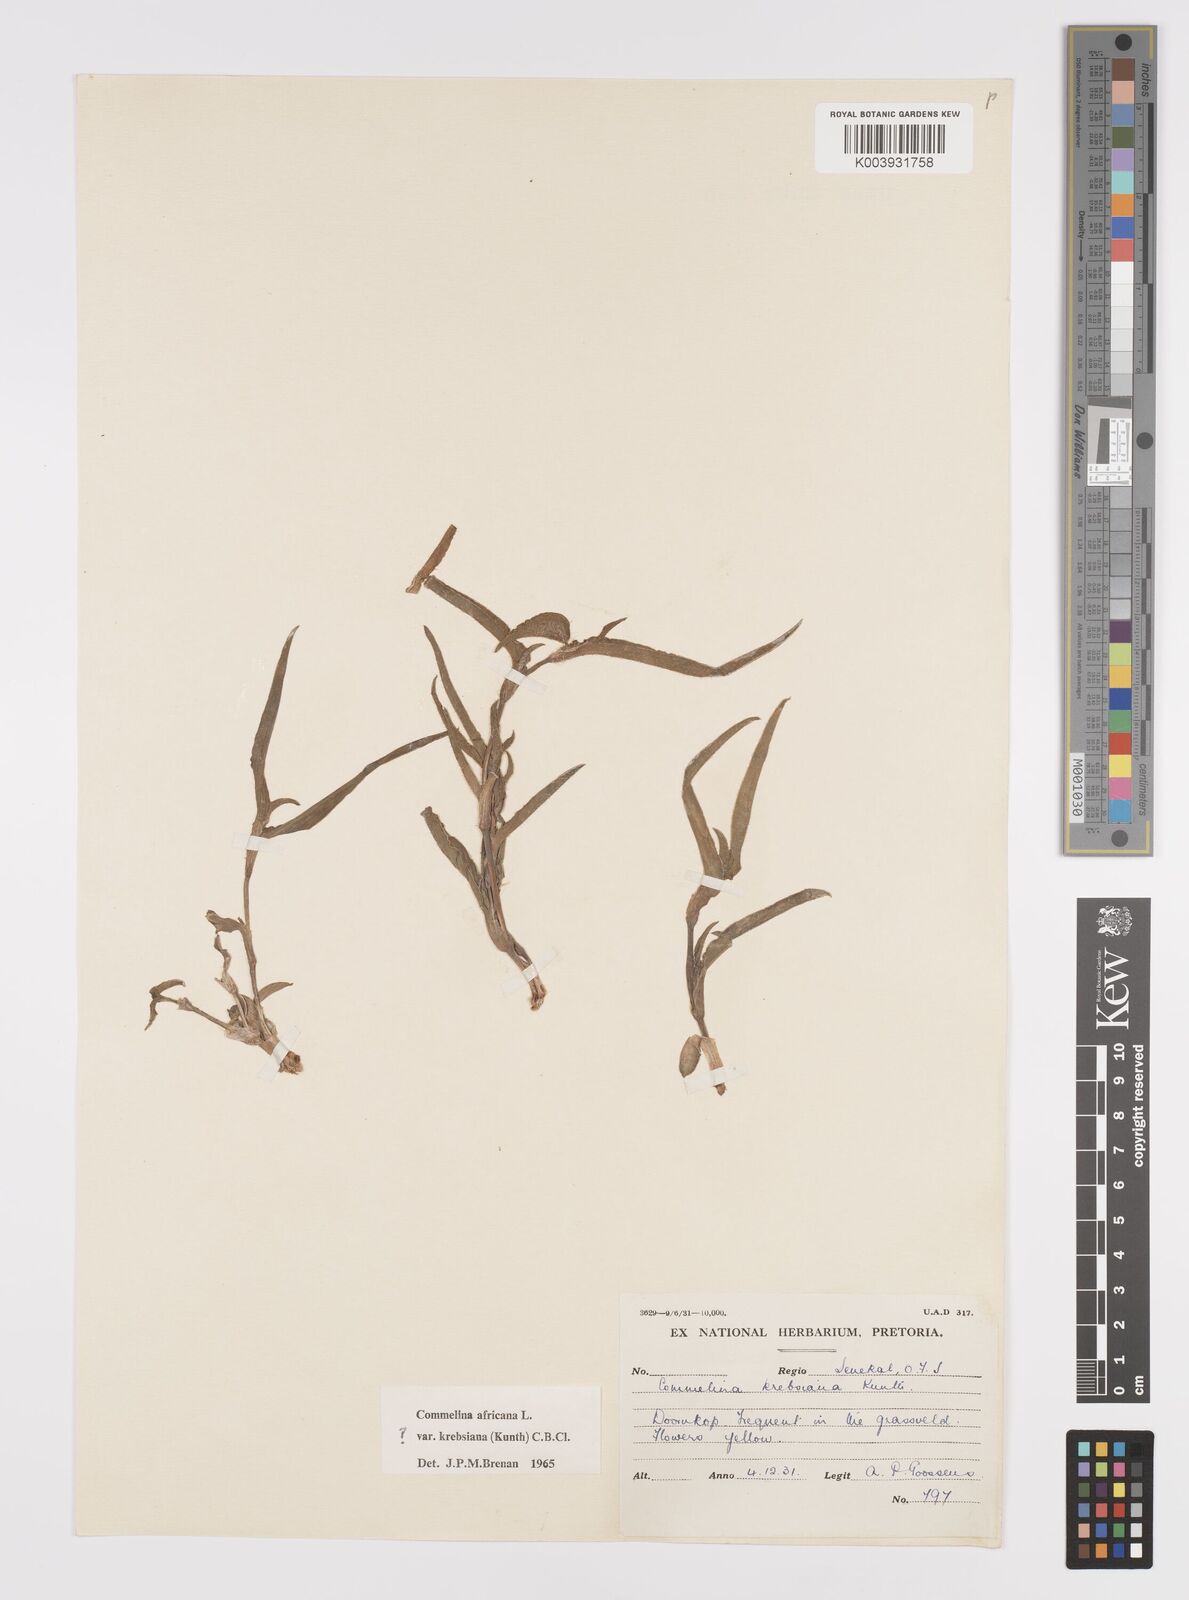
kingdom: Plantae
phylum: Tracheophyta
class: Liliopsida
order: Commelinales
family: Commelinaceae
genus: Commelina
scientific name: Commelina africana
